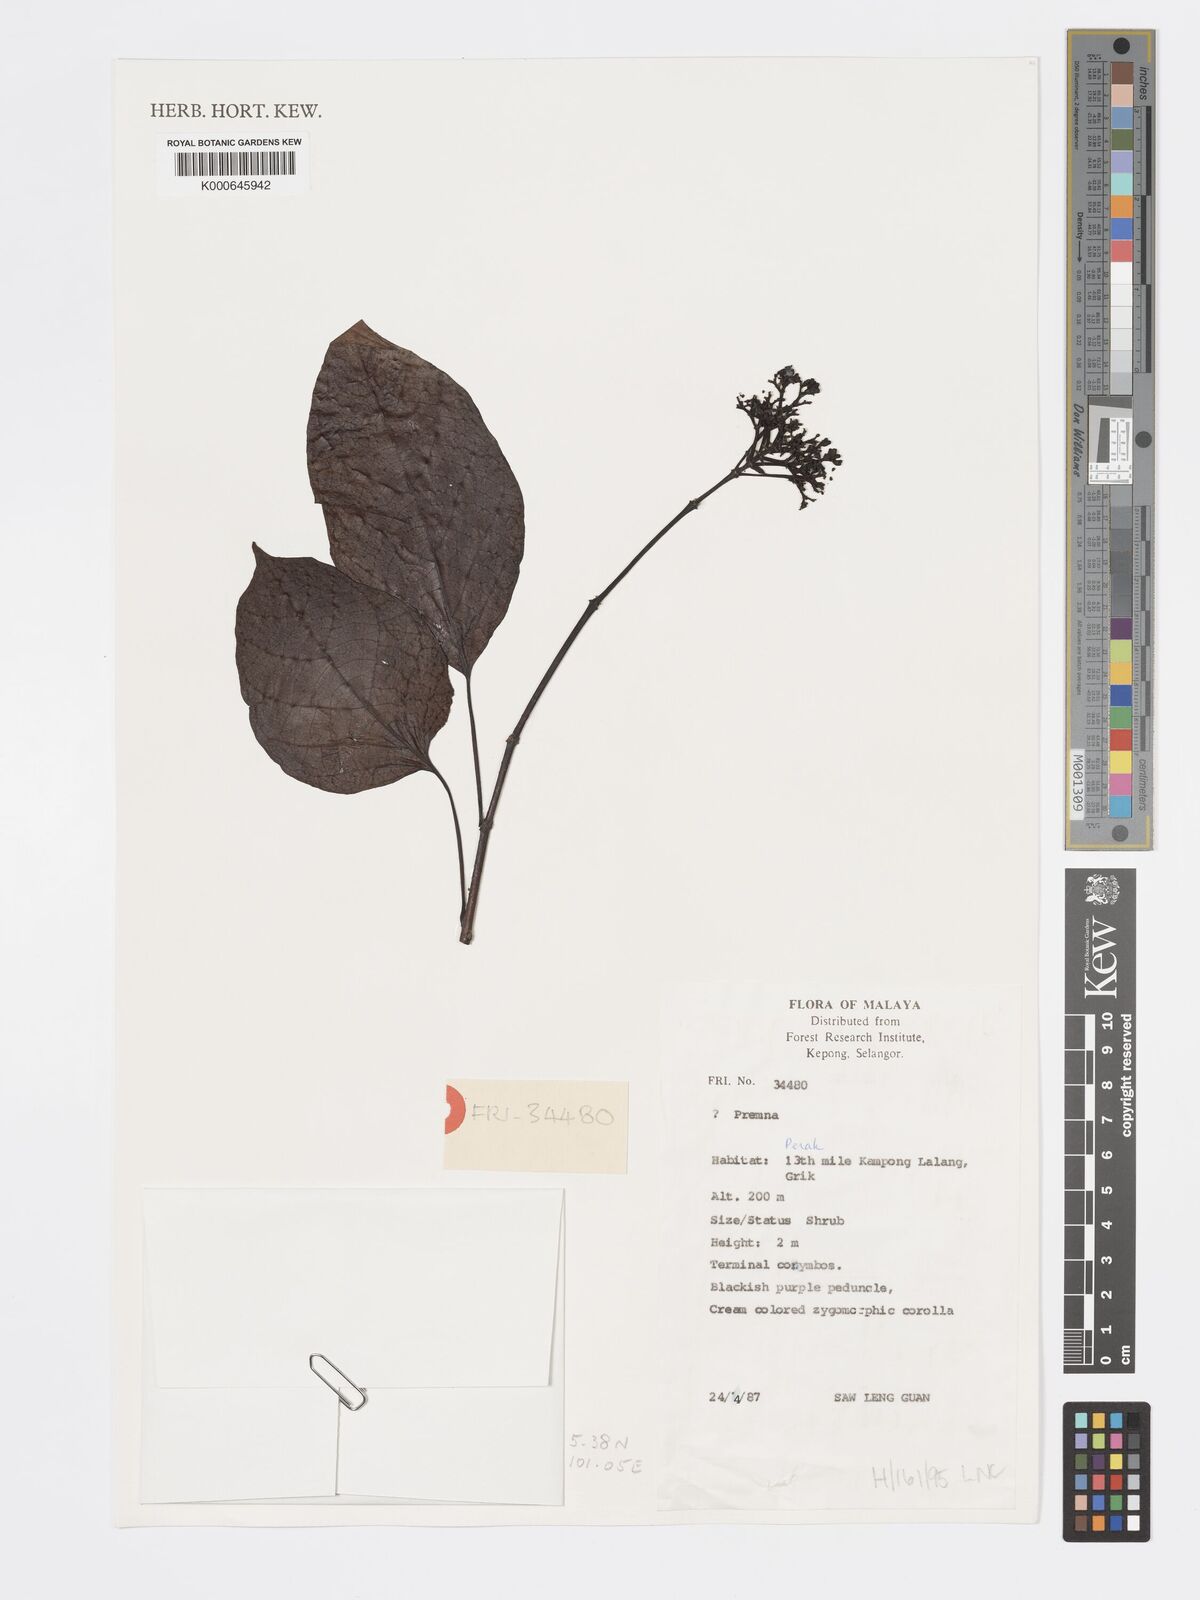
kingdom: Plantae
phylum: Tracheophyta
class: Magnoliopsida
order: Lamiales
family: Lamiaceae
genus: Premna
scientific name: Premna serratifolia
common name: Bastard guelder
